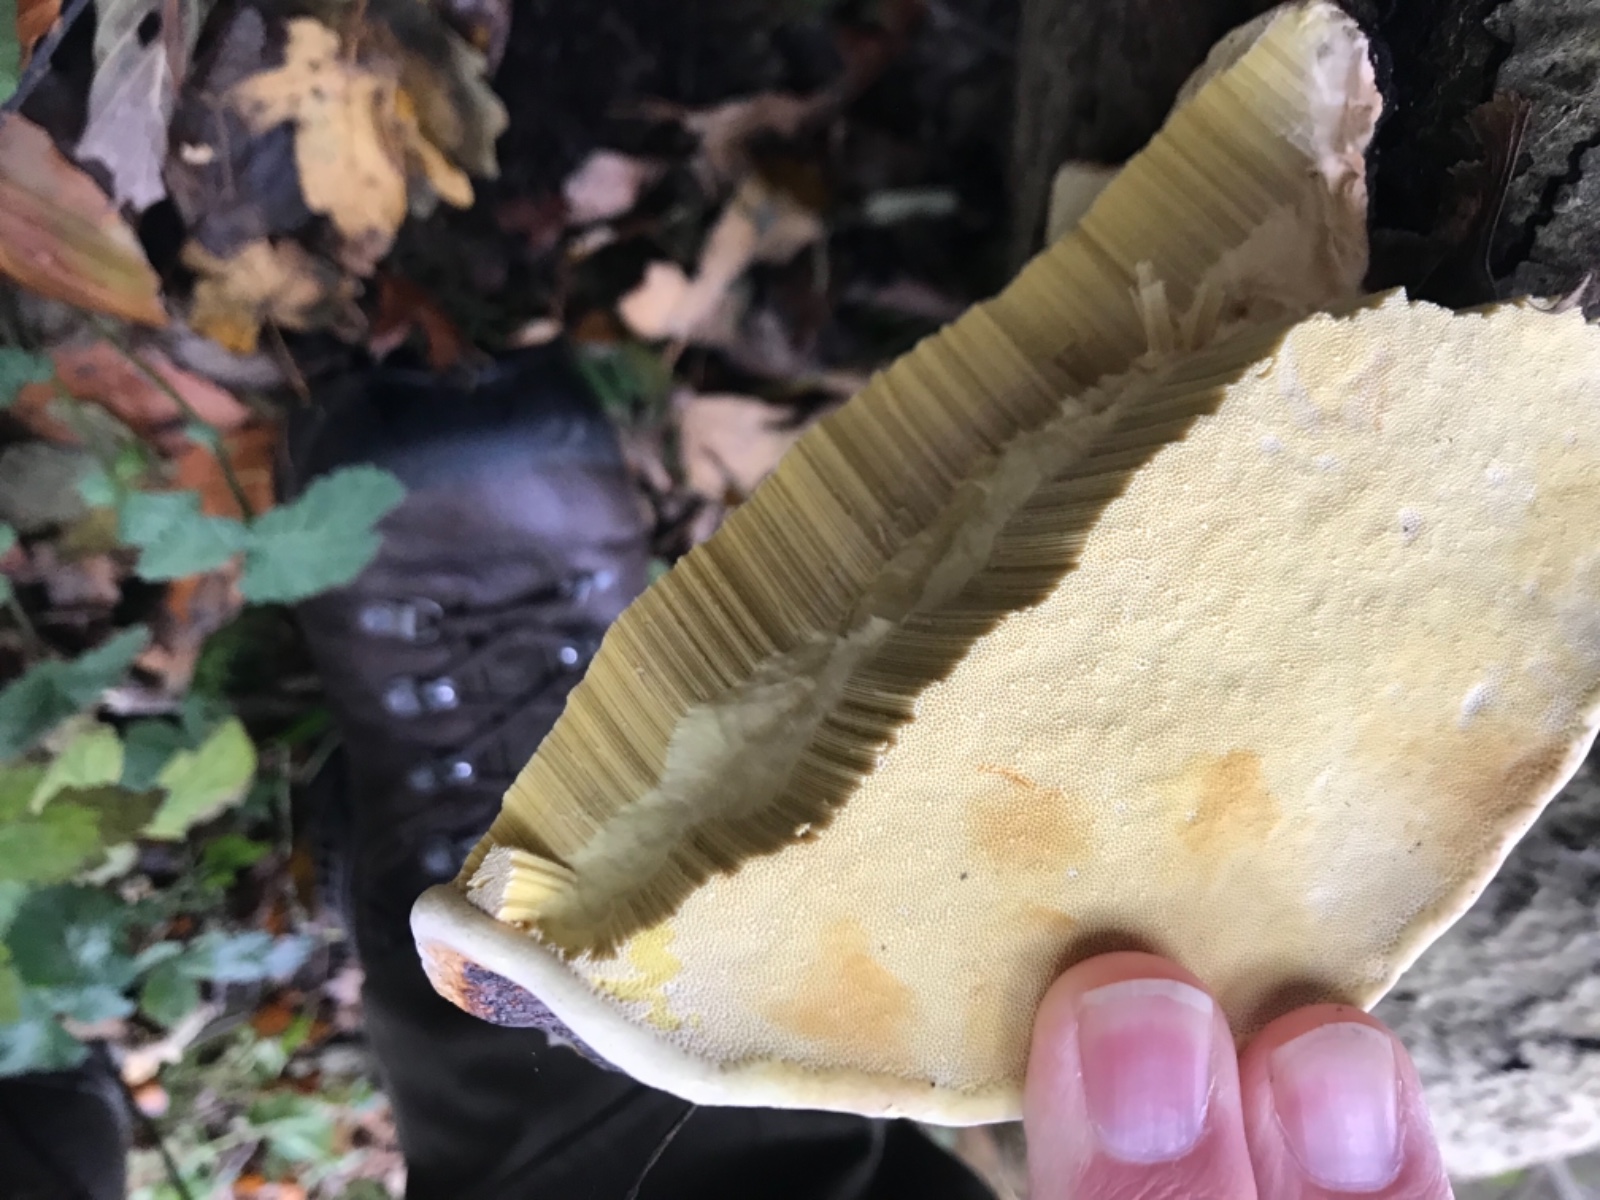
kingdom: Fungi
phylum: Basidiomycota
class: Agaricomycetes
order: Polyporales
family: Fomitopsidaceae
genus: Fomitopsis
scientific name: Fomitopsis pinicola
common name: randbæltet hovporesvamp
